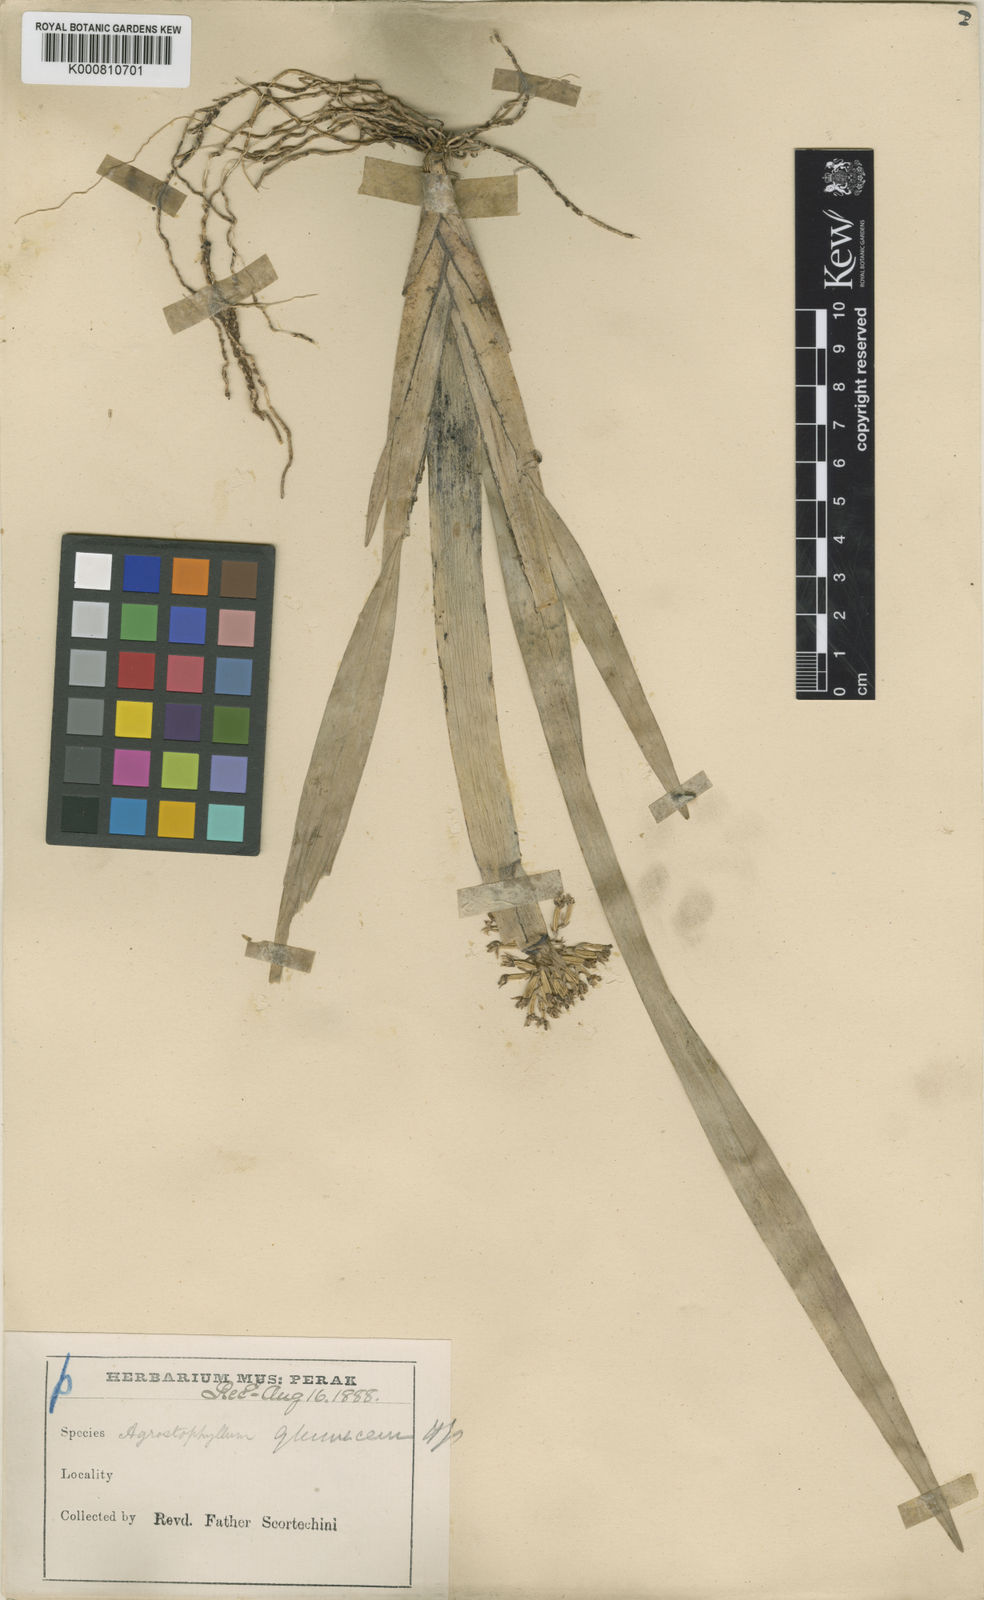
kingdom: Plantae
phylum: Tracheophyta
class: Liliopsida
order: Asparagales
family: Orchidaceae
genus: Agrostophyllum
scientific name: Agrostophyllum glumaceum
